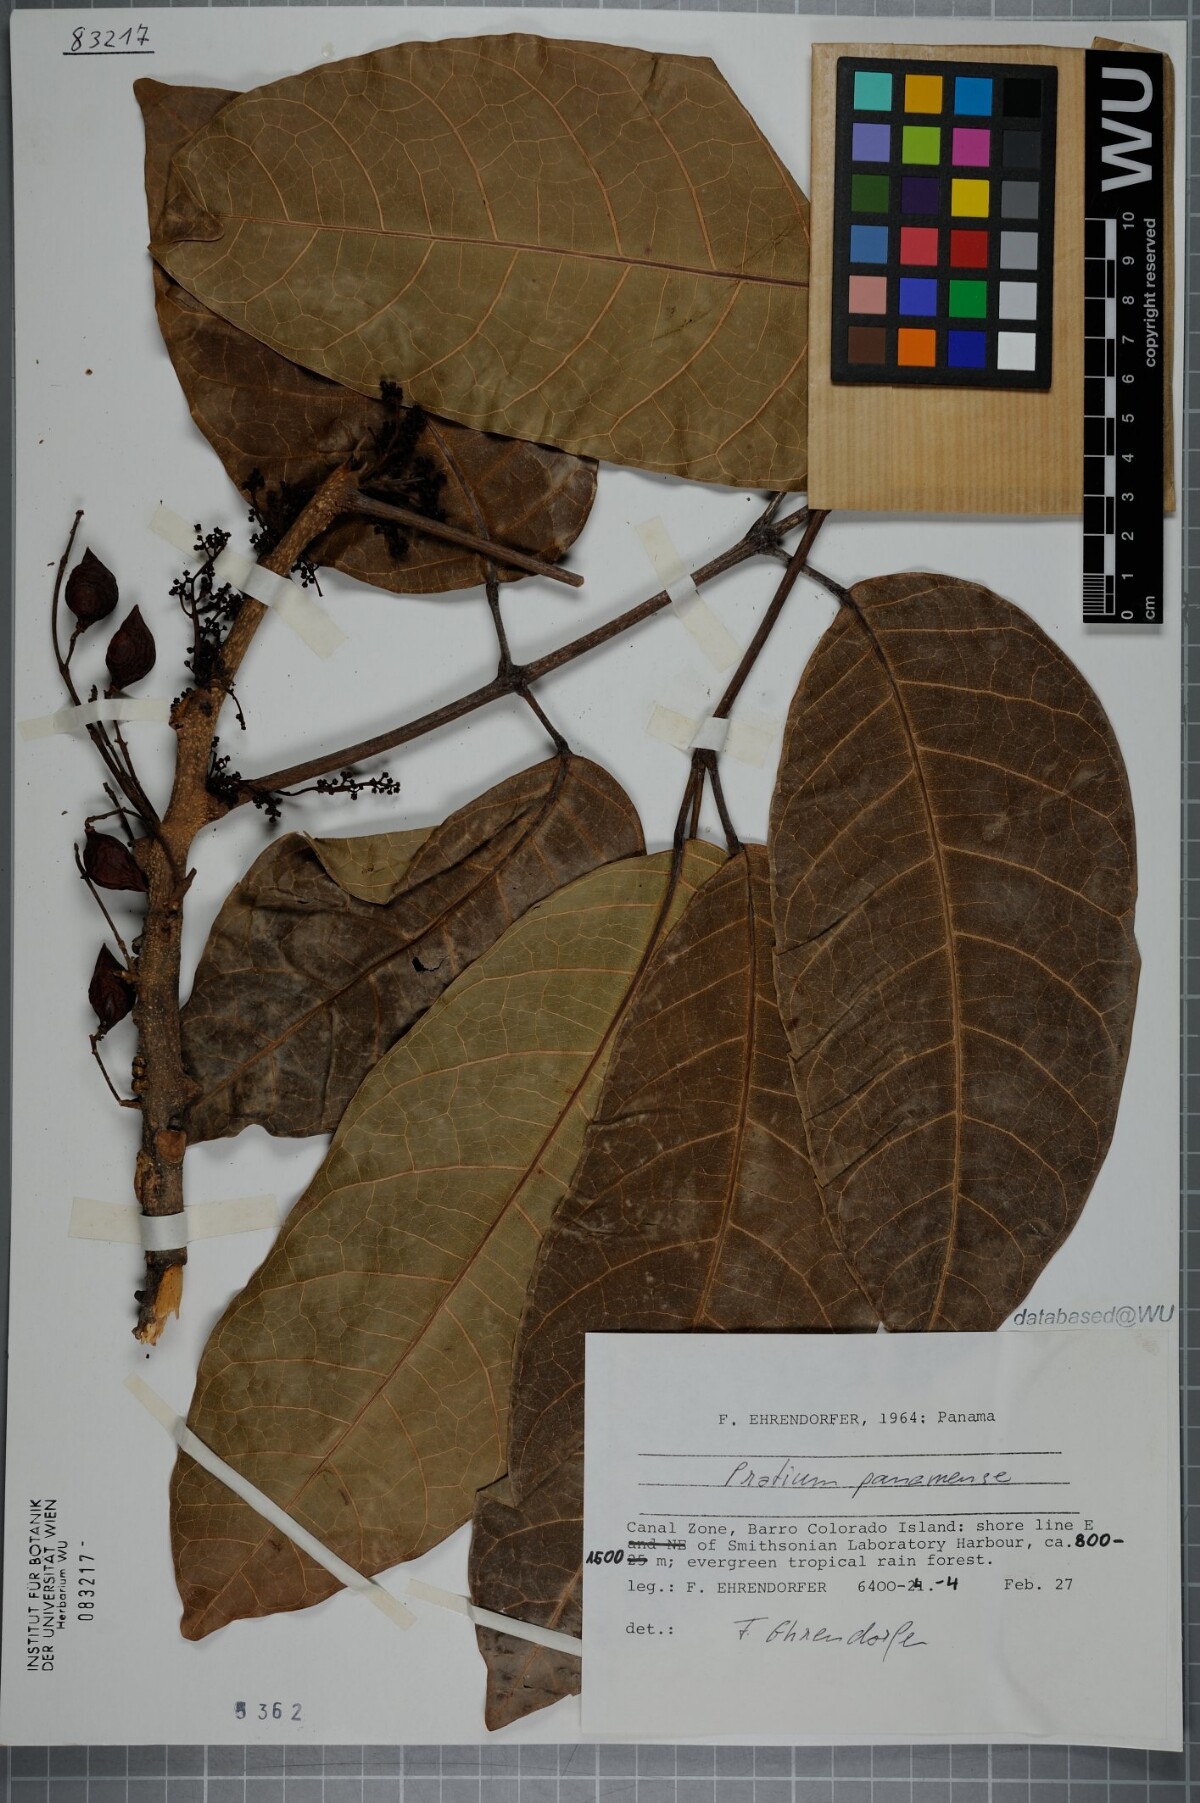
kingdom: Plantae
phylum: Tracheophyta
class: Magnoliopsida
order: Sapindales
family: Burseraceae
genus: Protium
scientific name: Protium panamense
